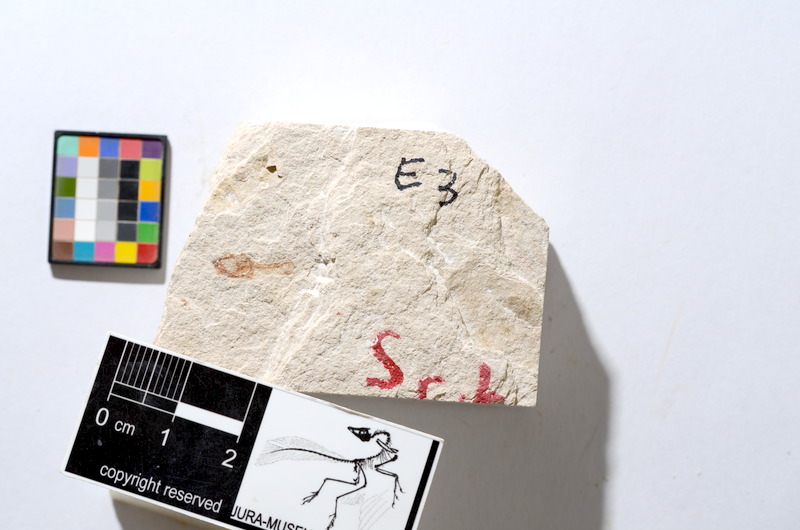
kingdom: Animalia
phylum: Chordata
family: Ascalaboidae
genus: Tharsis
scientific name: Tharsis dubius
